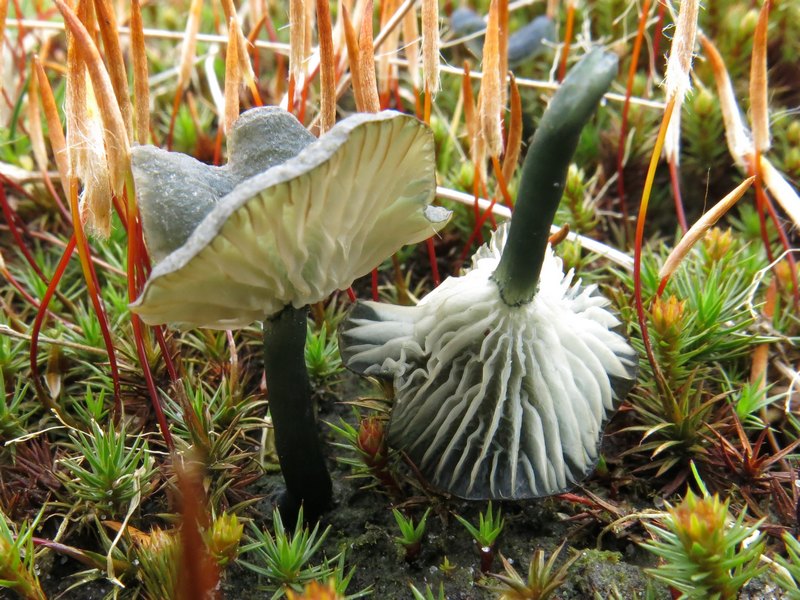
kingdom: Fungi
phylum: Basidiomycota
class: Agaricomycetes
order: Agaricales
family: Hygrophoraceae
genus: Arrhenia
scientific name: Arrhenia chlorocyanea
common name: blågrøn fontænehat
